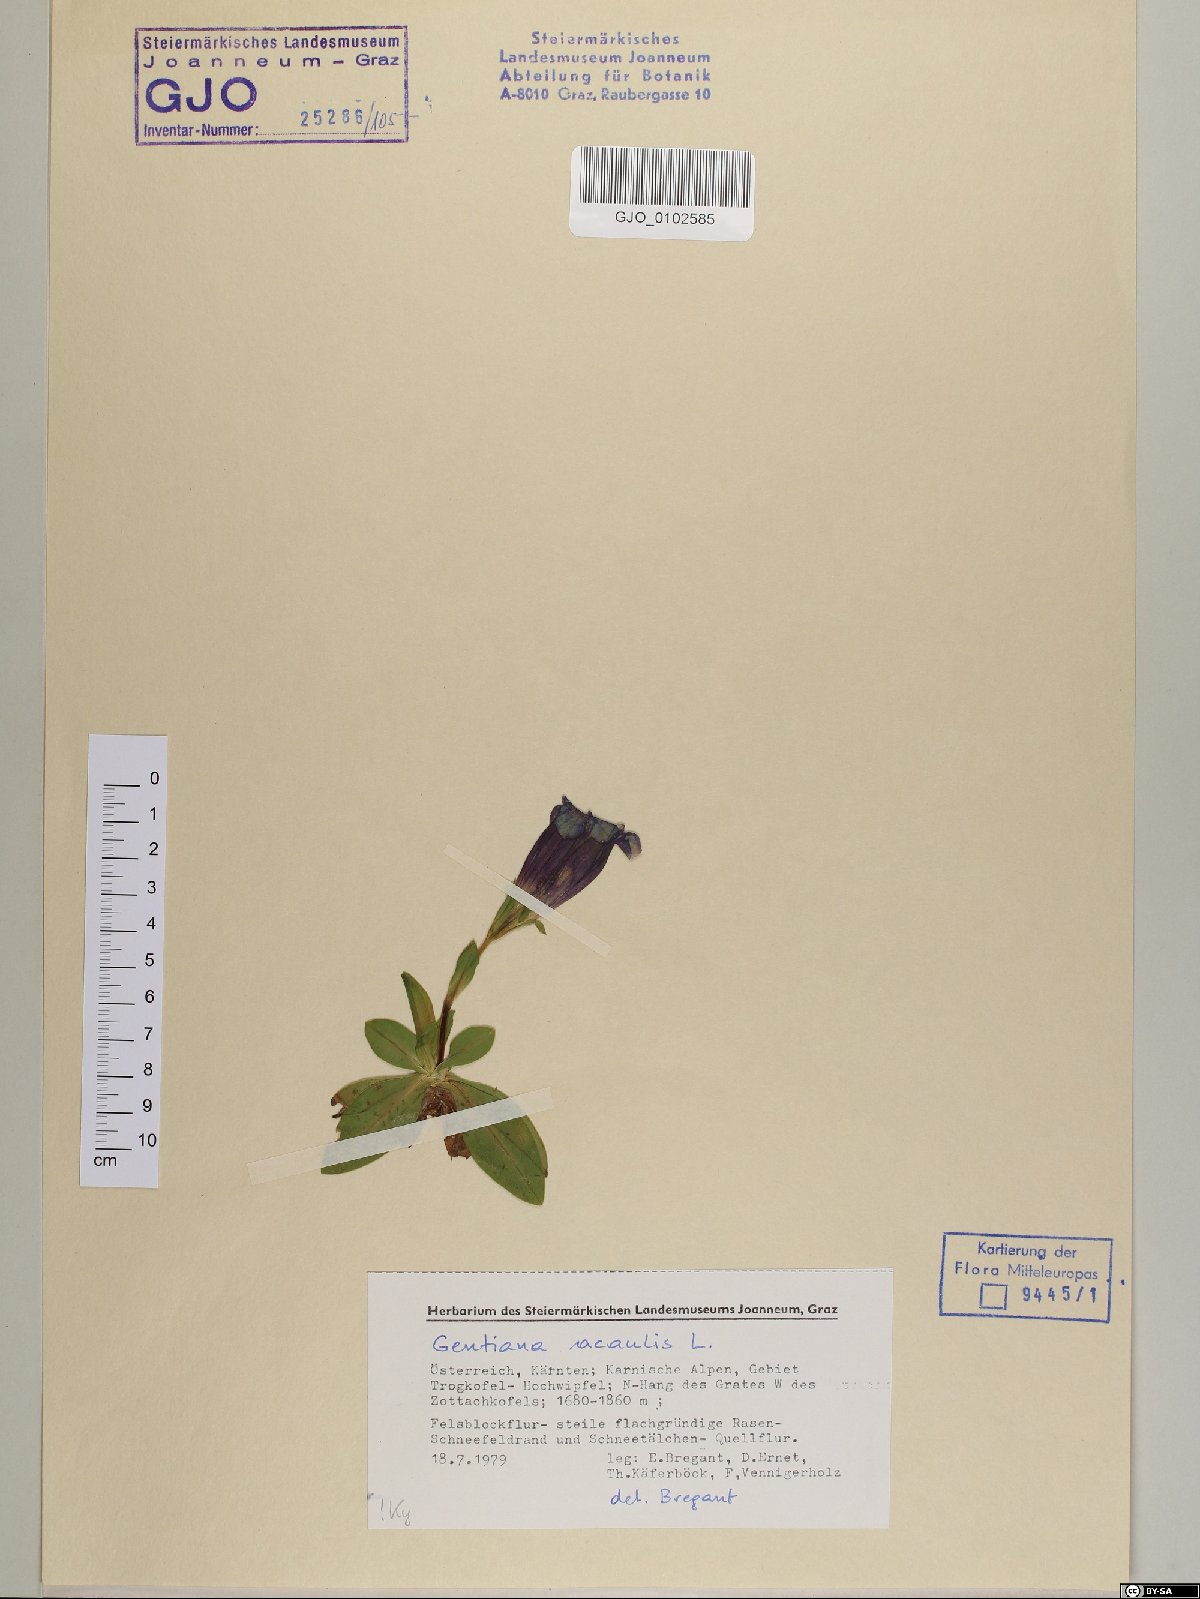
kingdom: Plantae
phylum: Tracheophyta
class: Magnoliopsida
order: Gentianales
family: Gentianaceae
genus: Gentiana
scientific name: Gentiana acaulis
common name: Trumpet gentian
